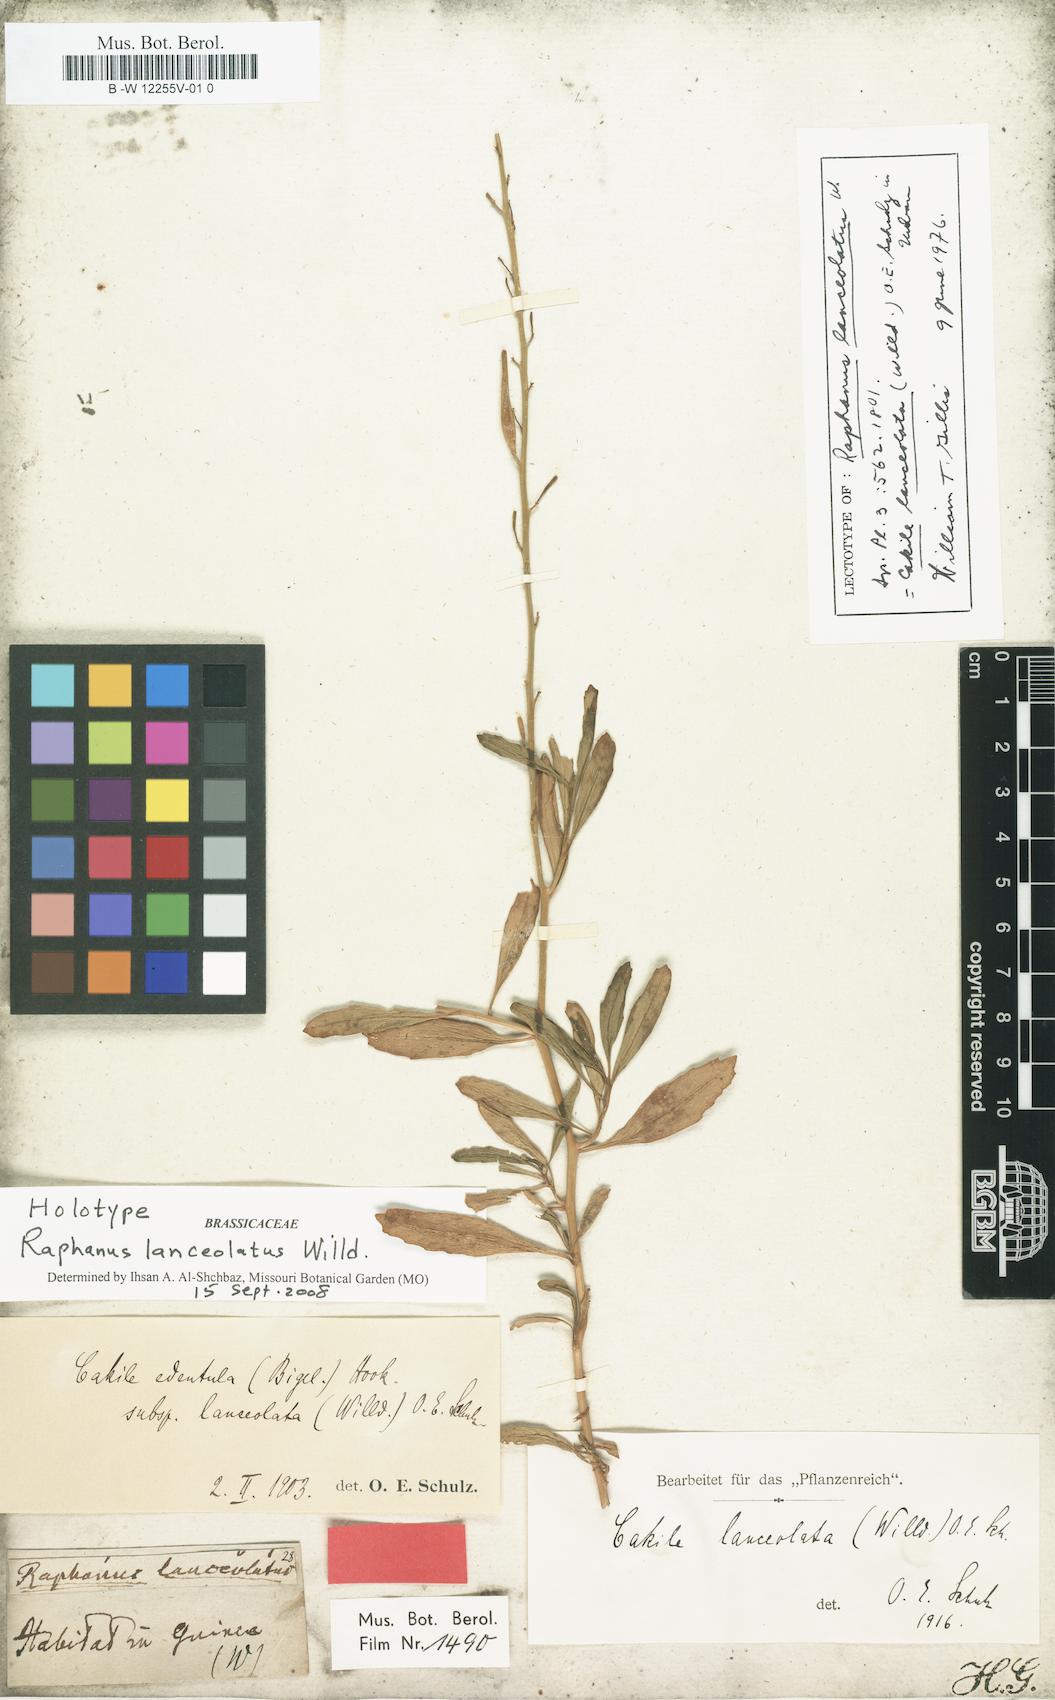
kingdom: Plantae
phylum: Tracheophyta
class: Magnoliopsida
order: Brassicales
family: Brassicaceae
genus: Cakile
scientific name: Cakile lanceolata
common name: Sea rocket
